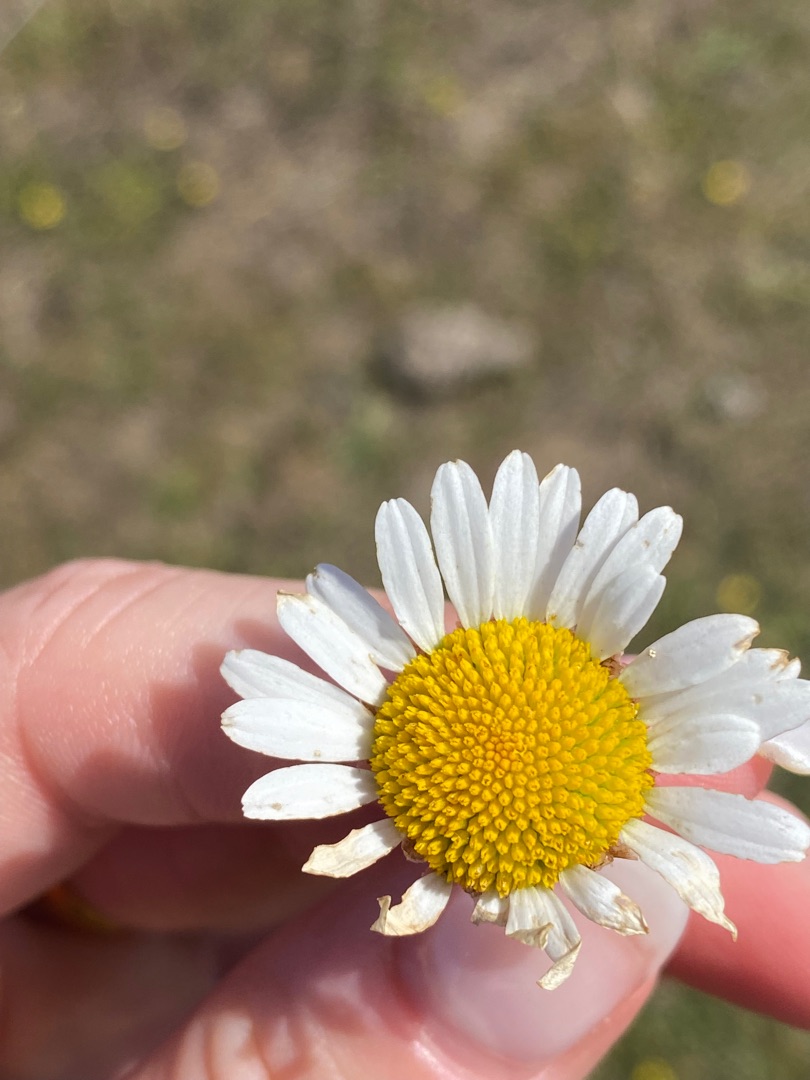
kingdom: Plantae
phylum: Tracheophyta
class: Magnoliopsida
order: Asterales
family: Asteraceae
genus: Leucanthemum
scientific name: Leucanthemum vulgare
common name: Hvid okseøje
